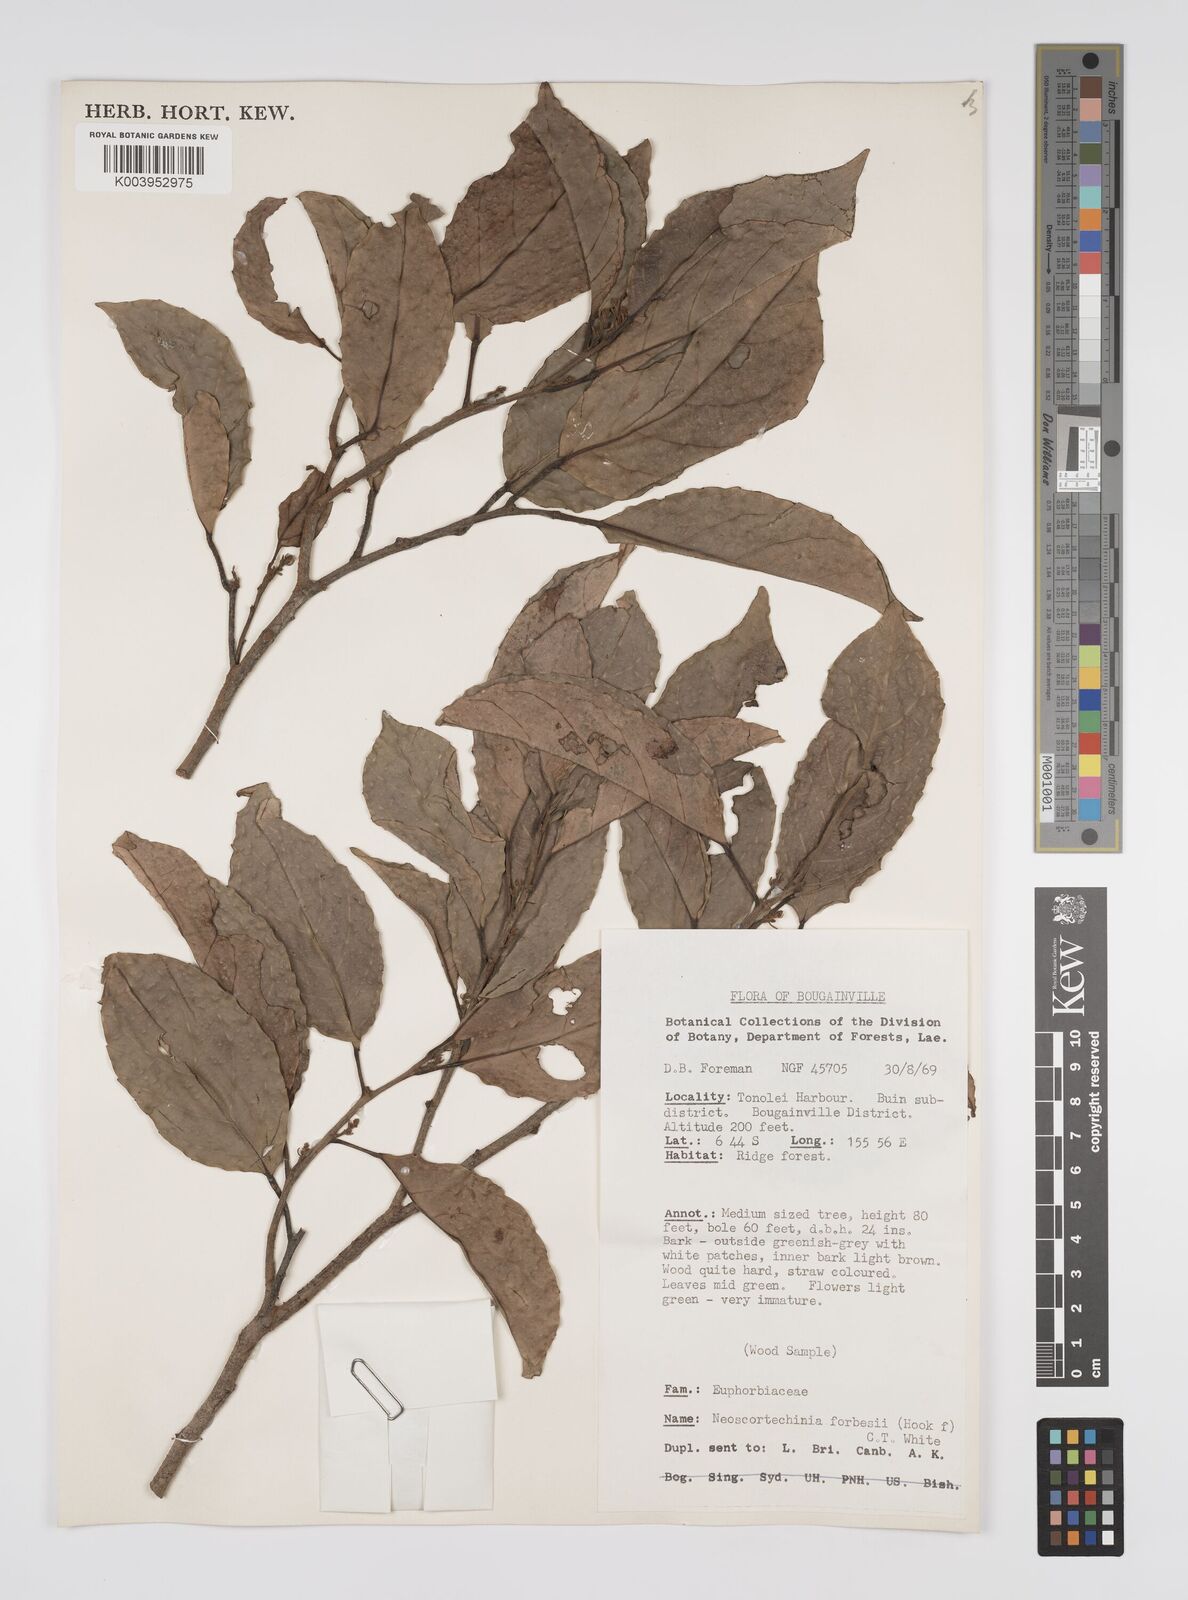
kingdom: Plantae
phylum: Tracheophyta
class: Magnoliopsida
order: Malpighiales
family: Euphorbiaceae
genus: Neoscortechinia
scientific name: Neoscortechinia forbesii
